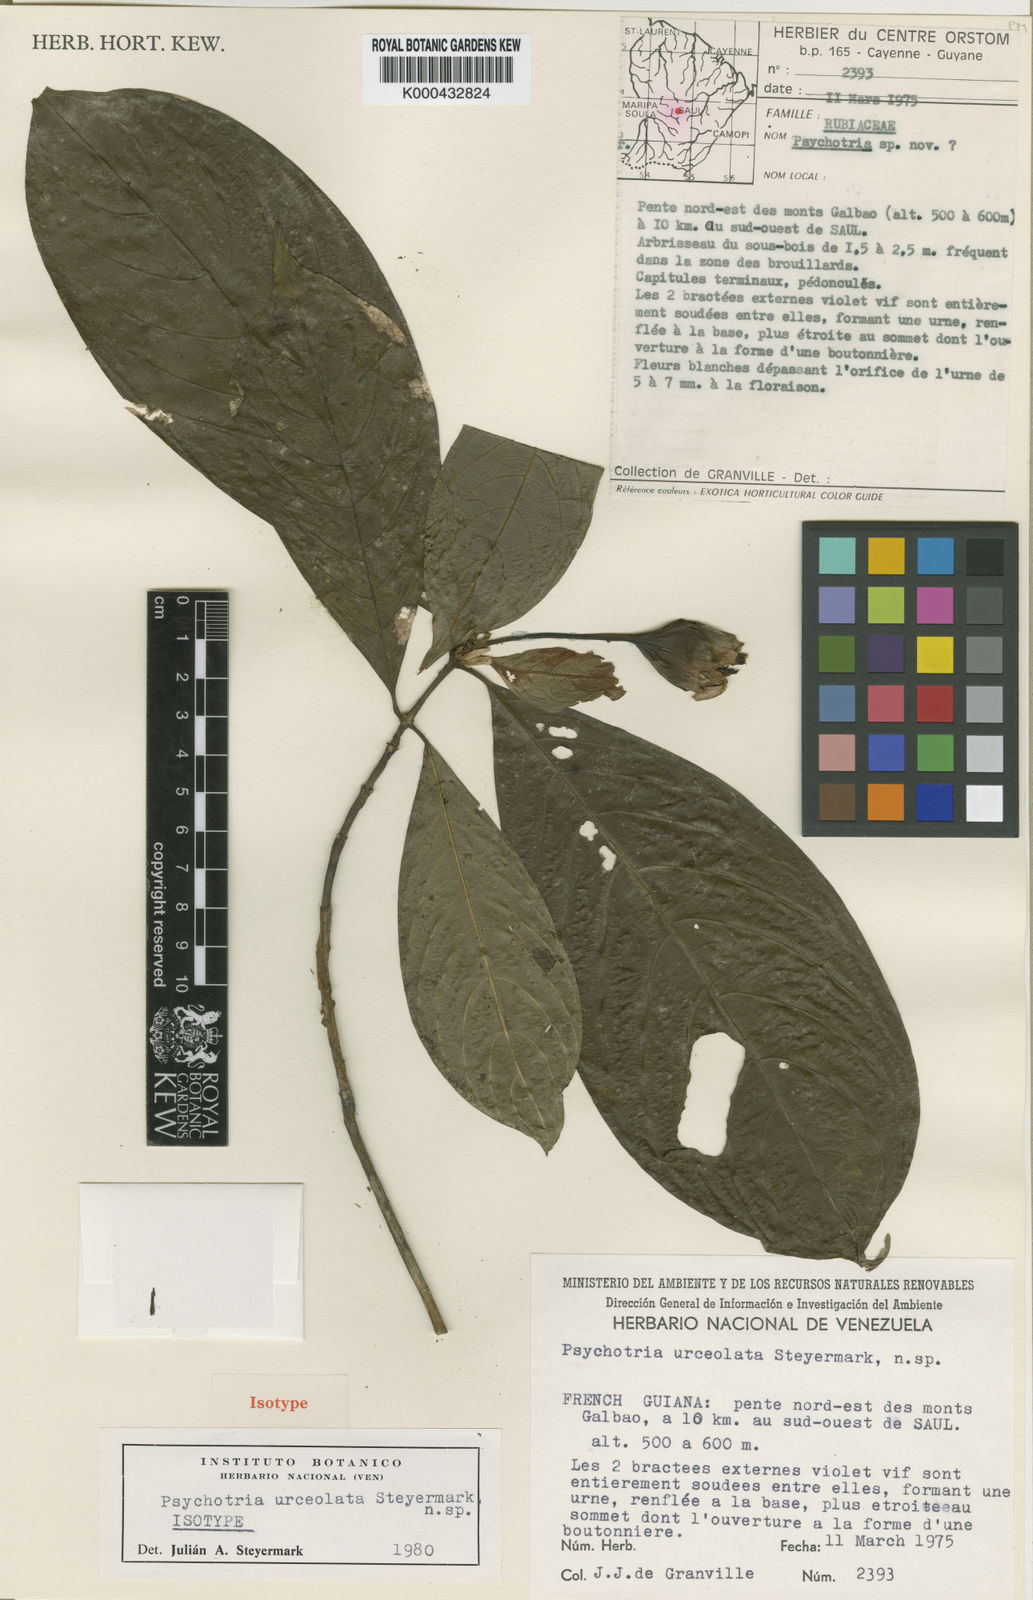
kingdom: Plantae
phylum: Tracheophyta
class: Magnoliopsida
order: Gentianales
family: Rubiaceae
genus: Palicourea
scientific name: Palicourea urceolata
